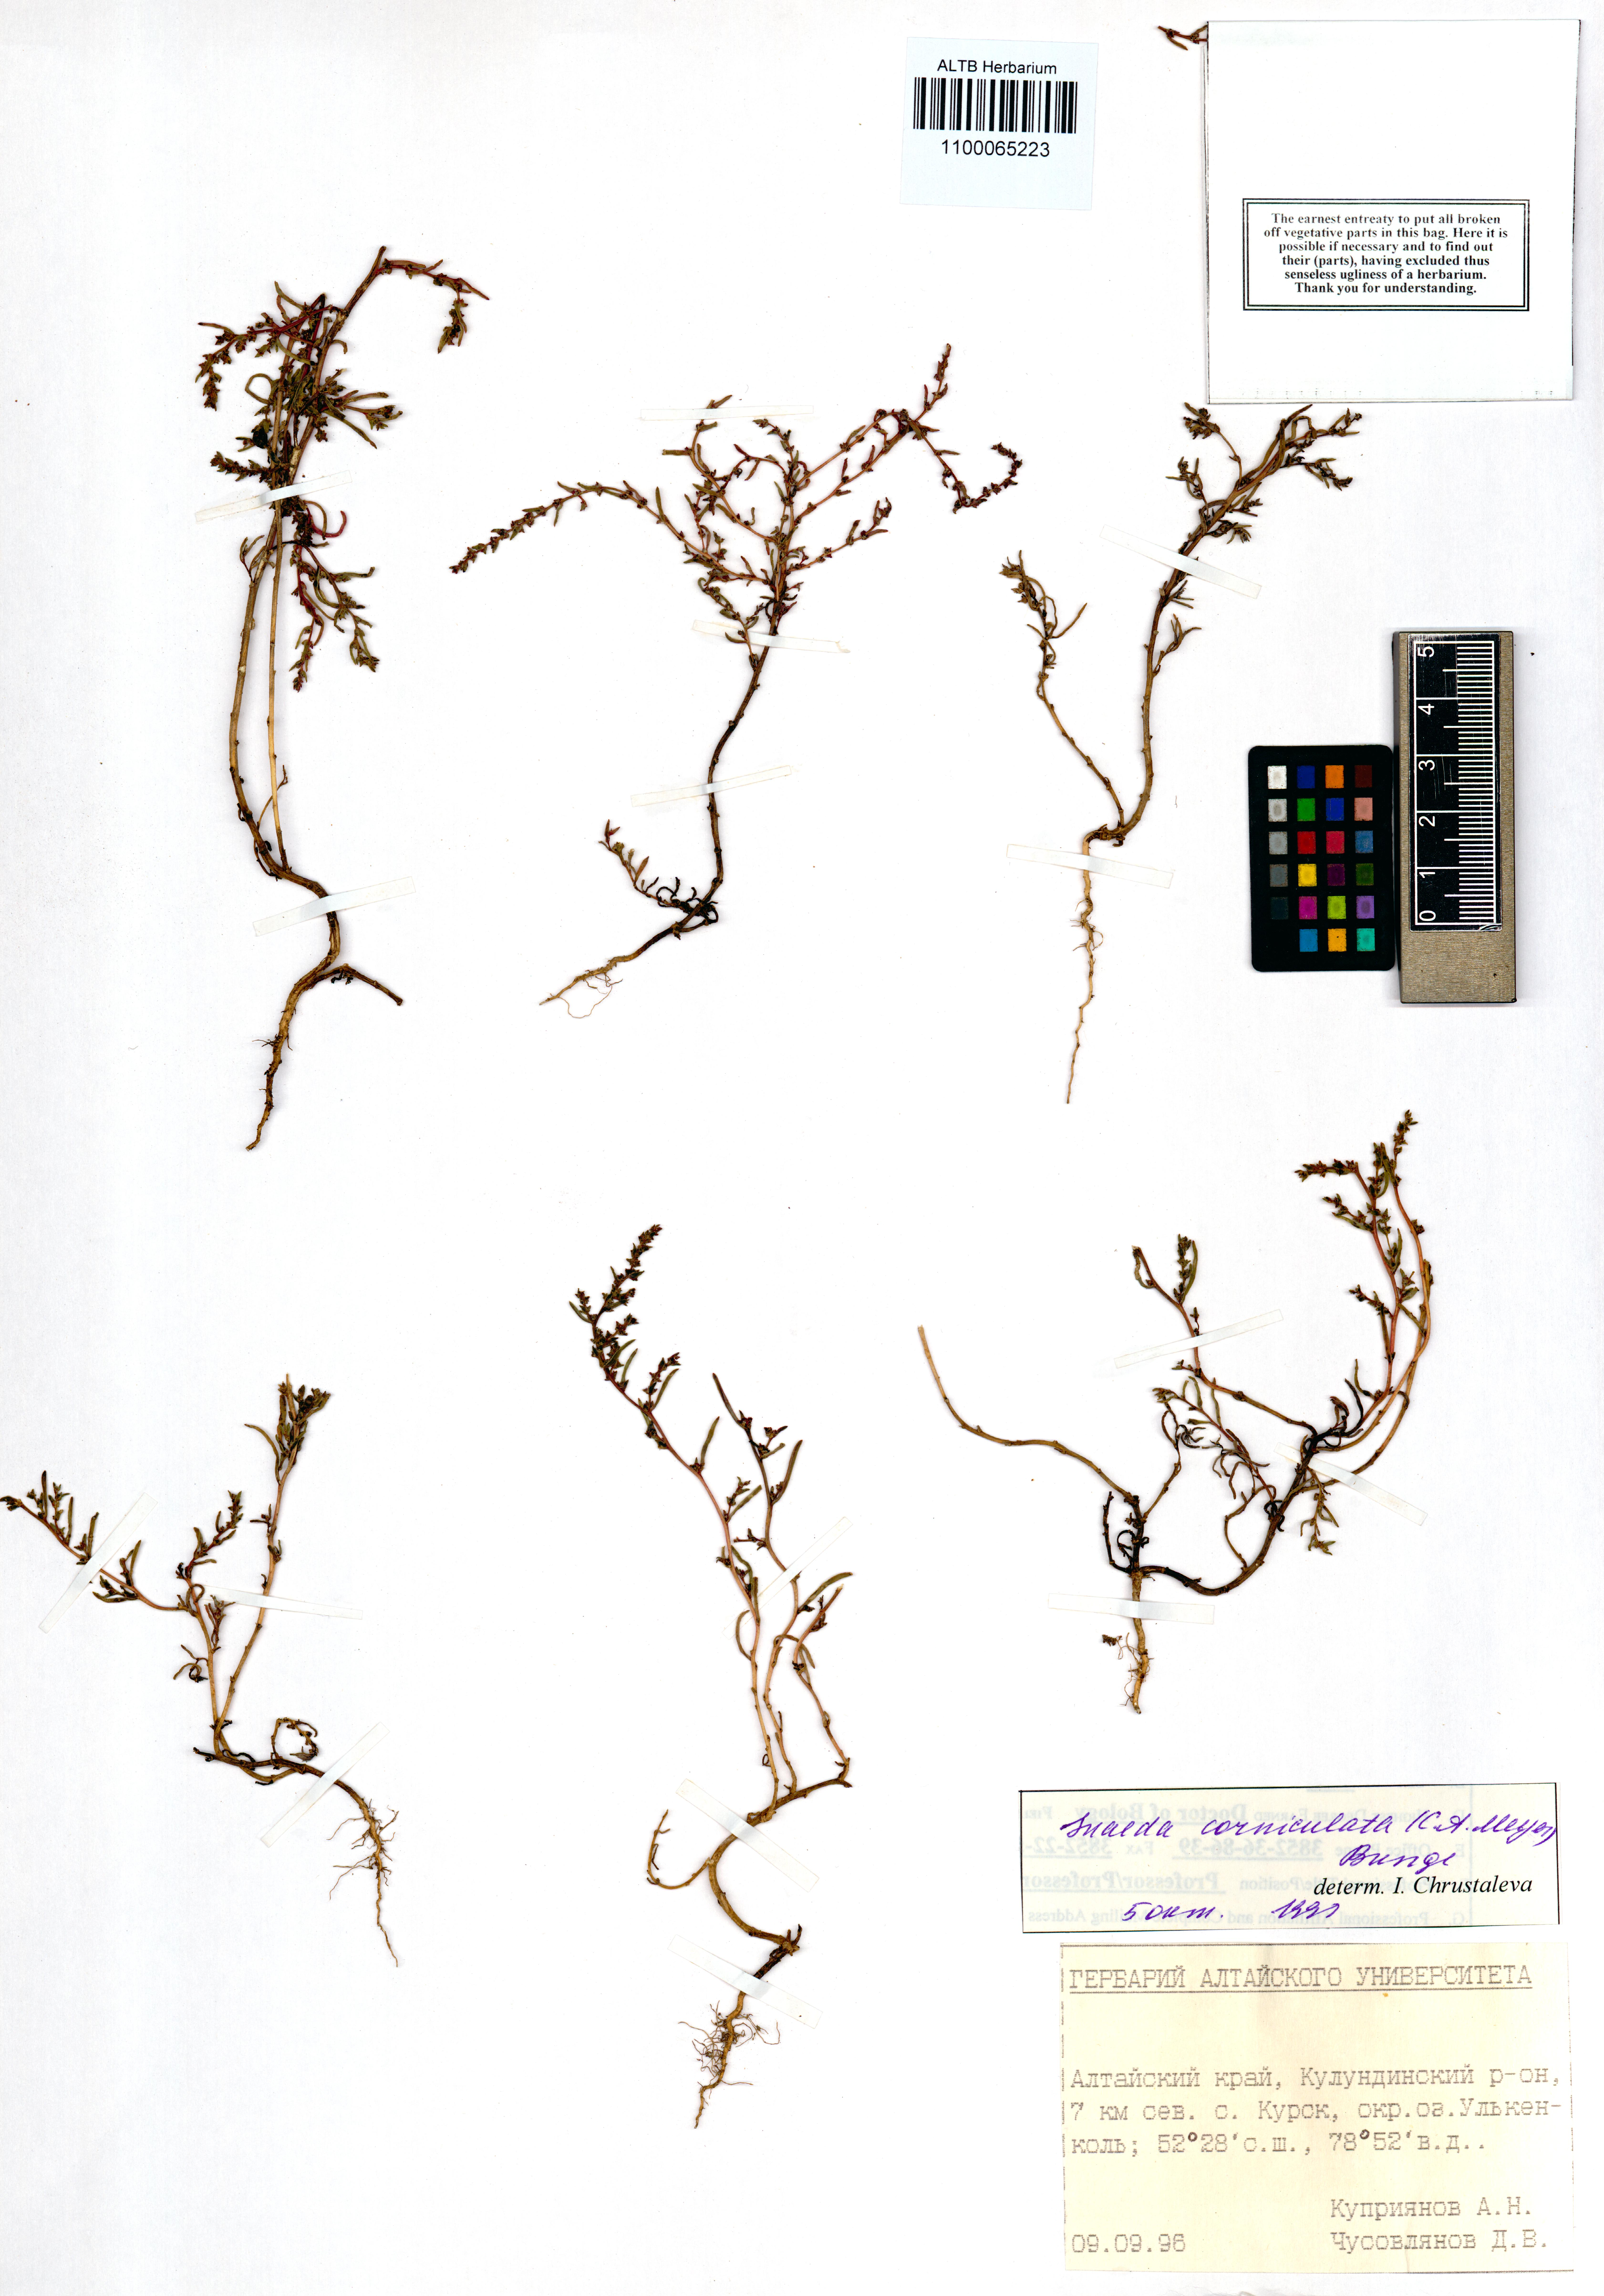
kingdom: Plantae
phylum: Tracheophyta
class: Magnoliopsida
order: Caryophyllales
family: Amaranthaceae
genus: Suaeda
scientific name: Suaeda corniculata
